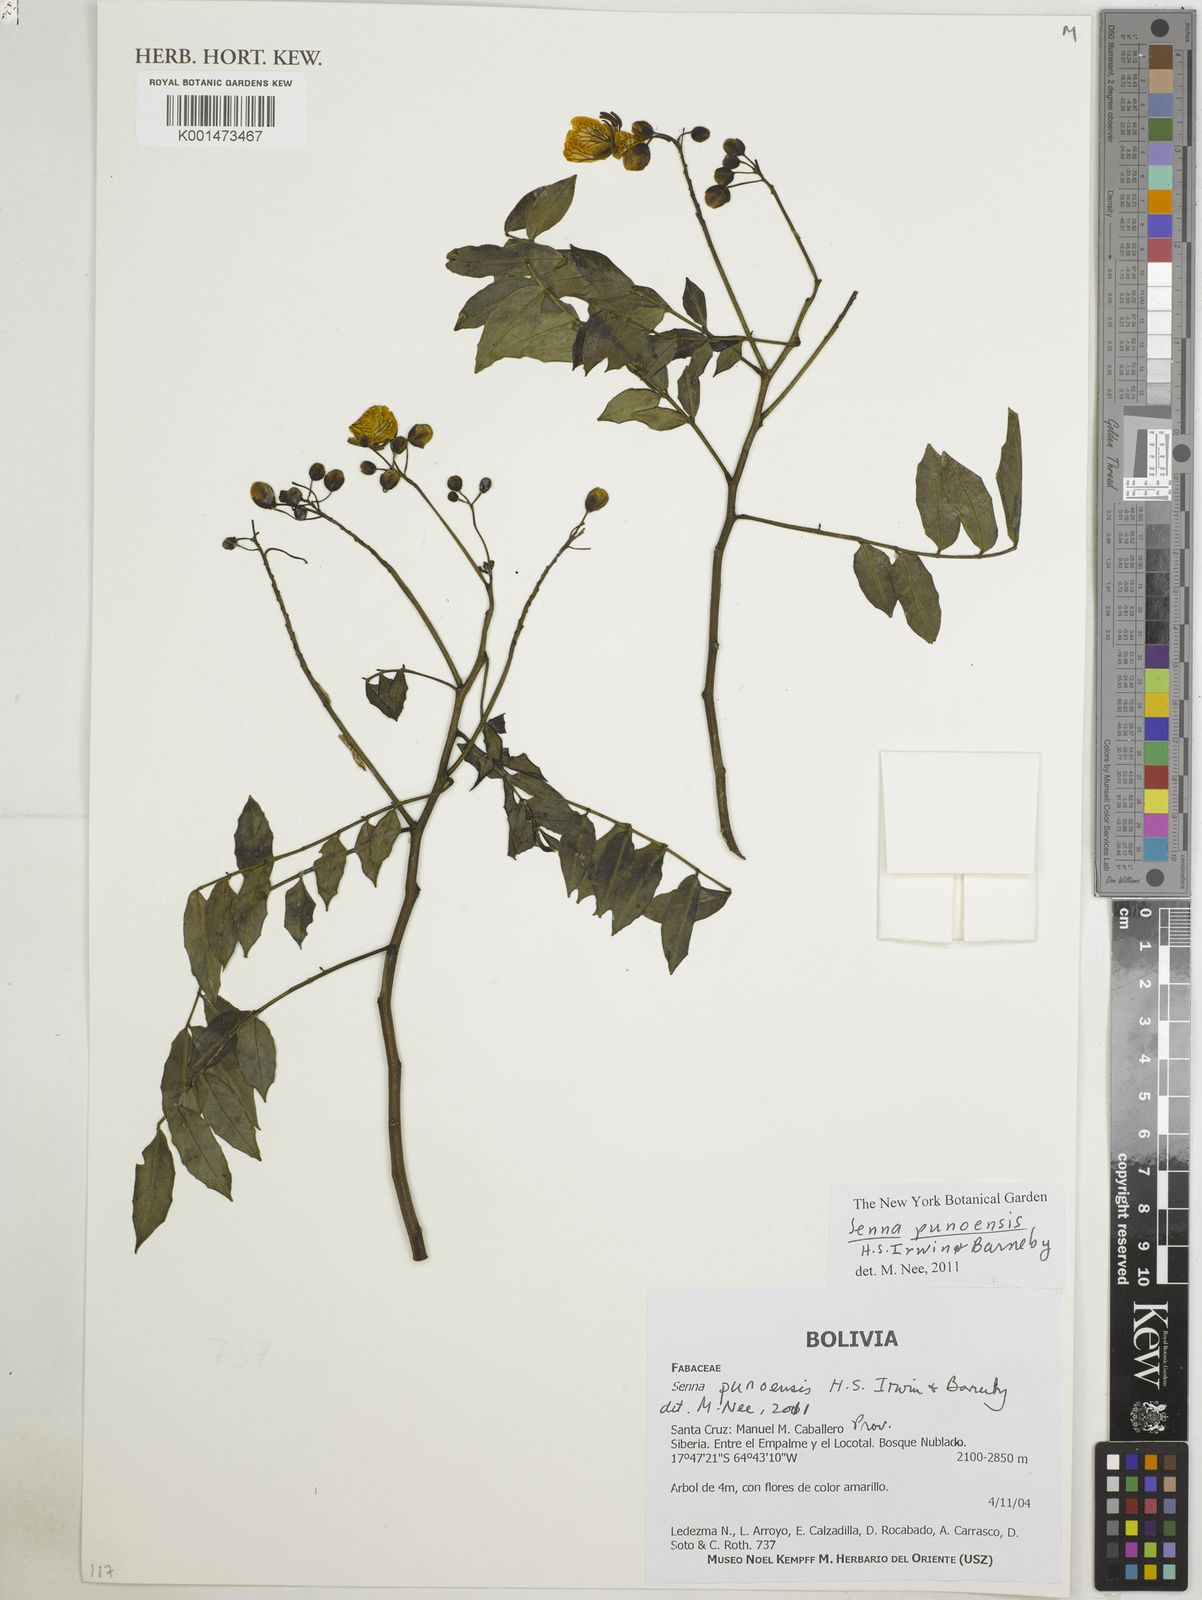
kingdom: Plantae
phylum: Tracheophyta
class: Magnoliopsida
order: Fabales
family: Fabaceae
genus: Senna
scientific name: Senna punoensis
